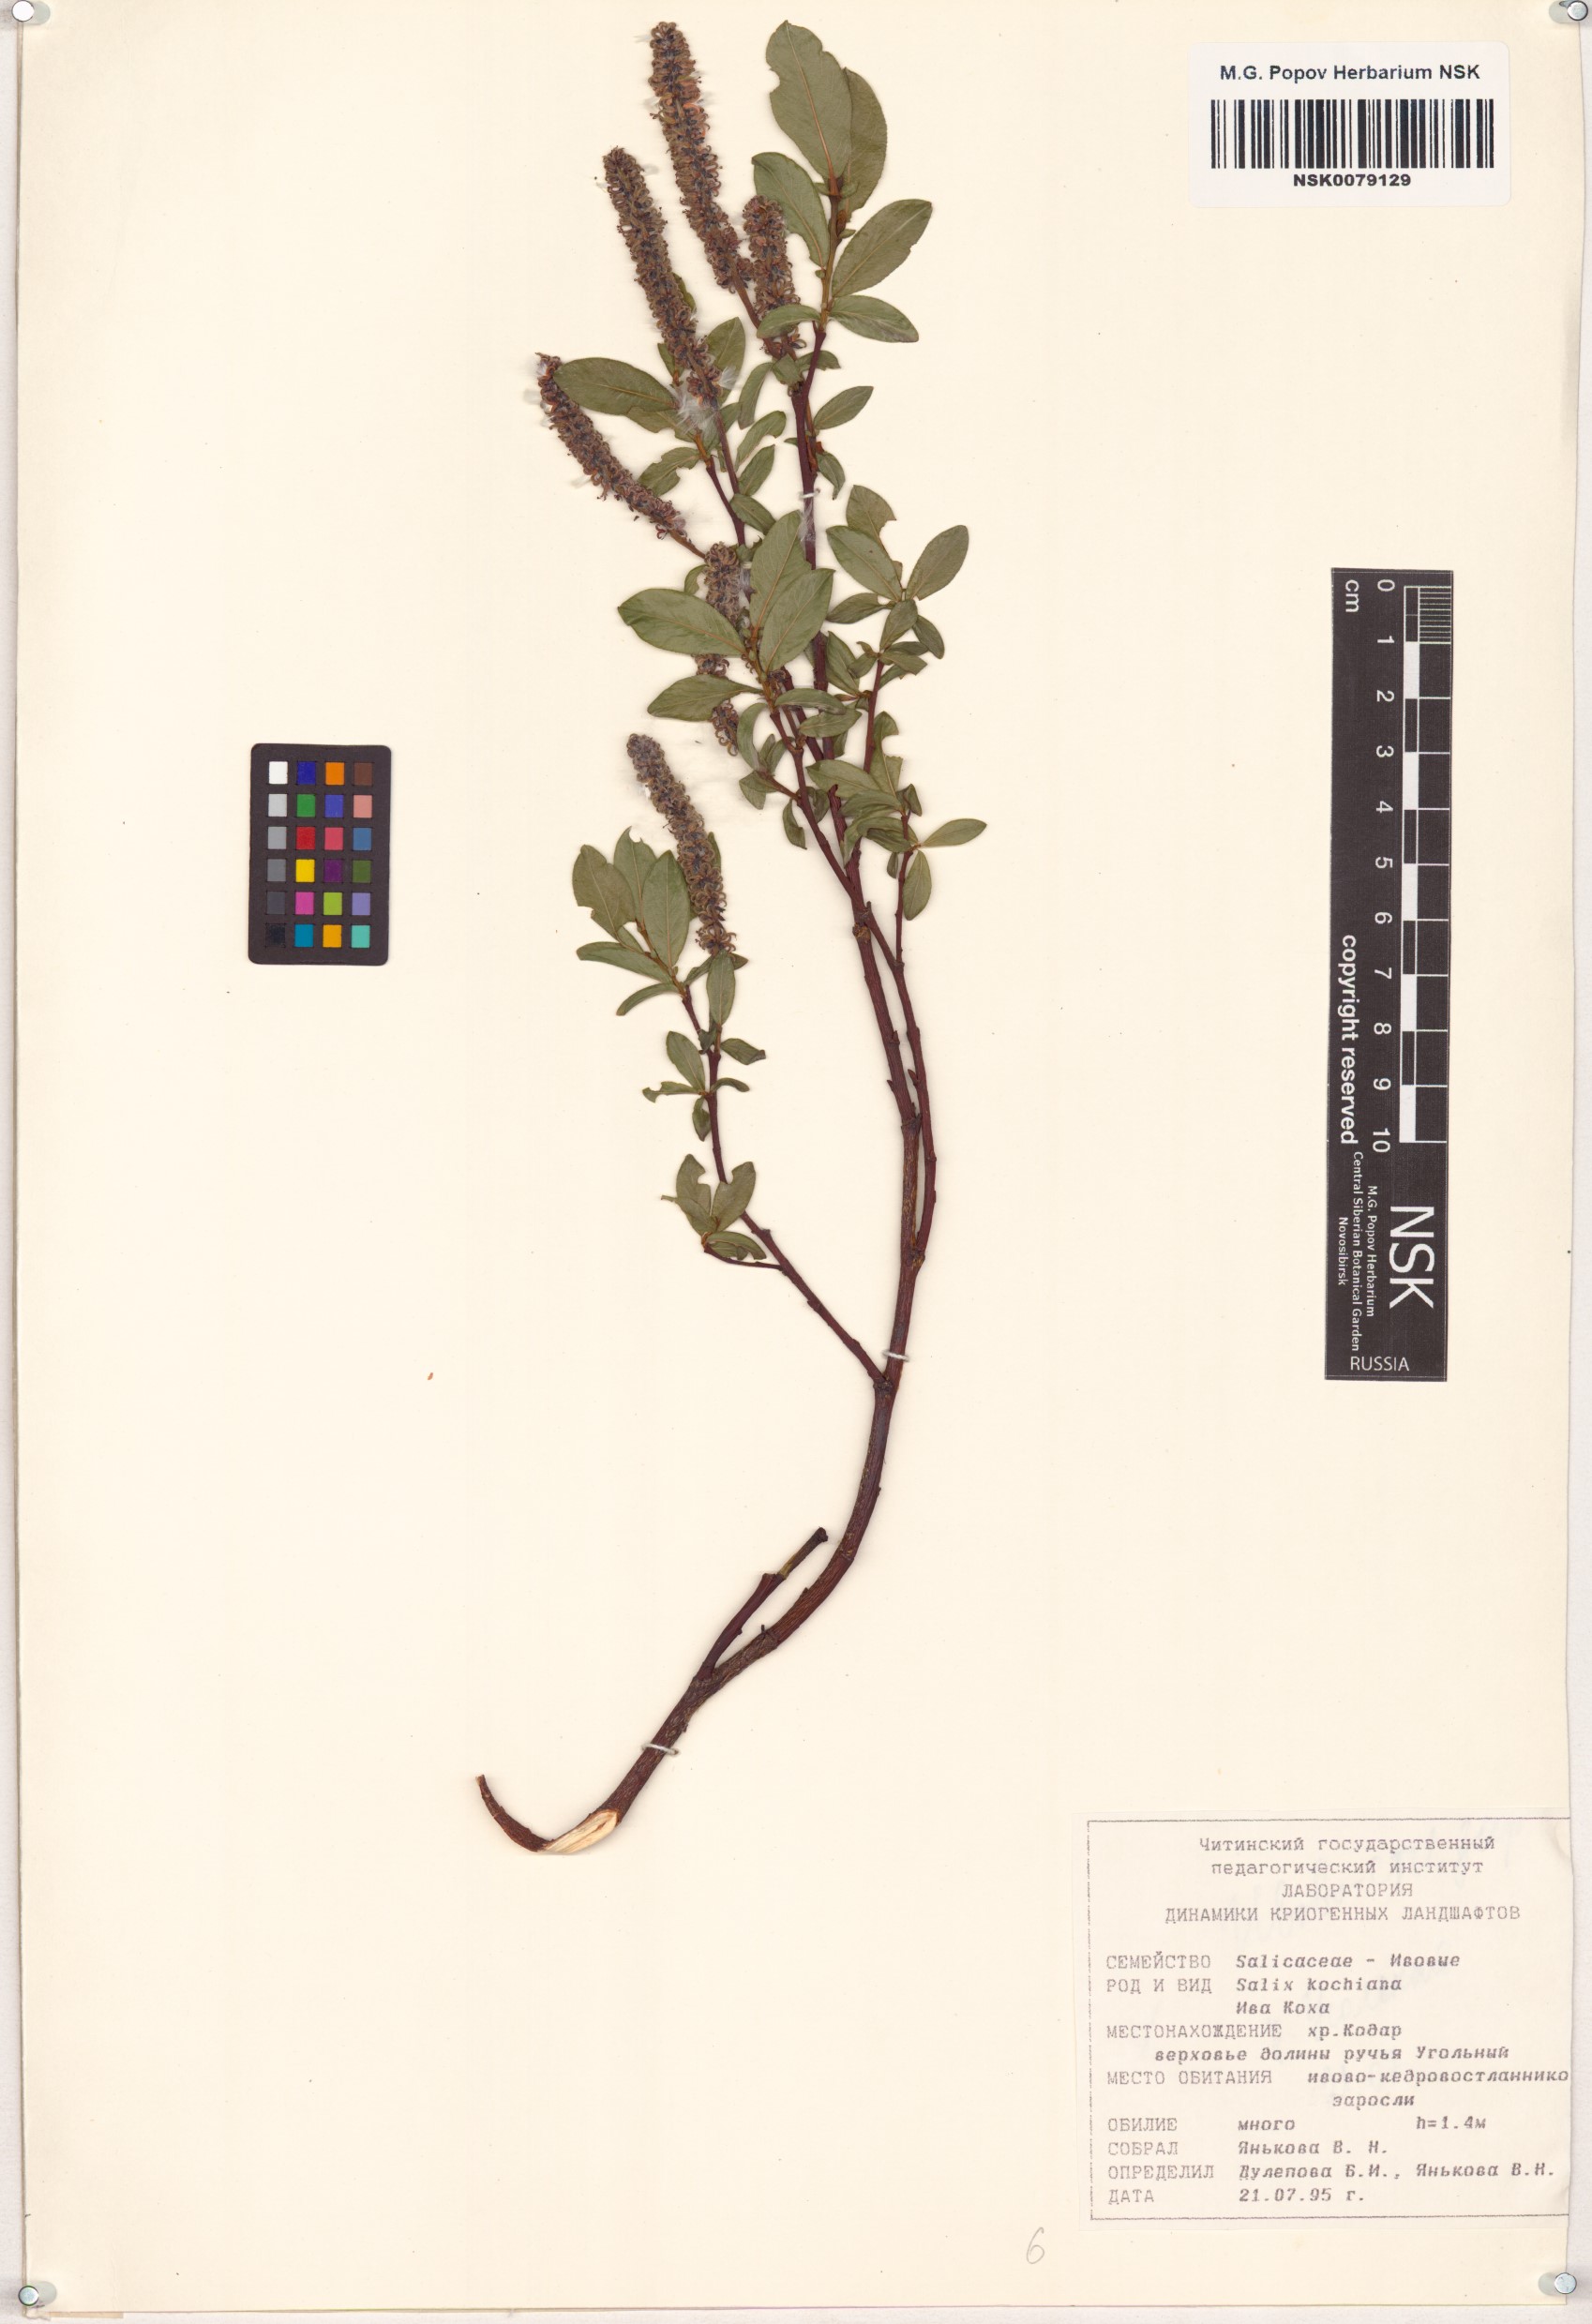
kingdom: Plantae
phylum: Tracheophyta
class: Magnoliopsida
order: Malpighiales
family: Salicaceae
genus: Salix
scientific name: Salix kochiana
